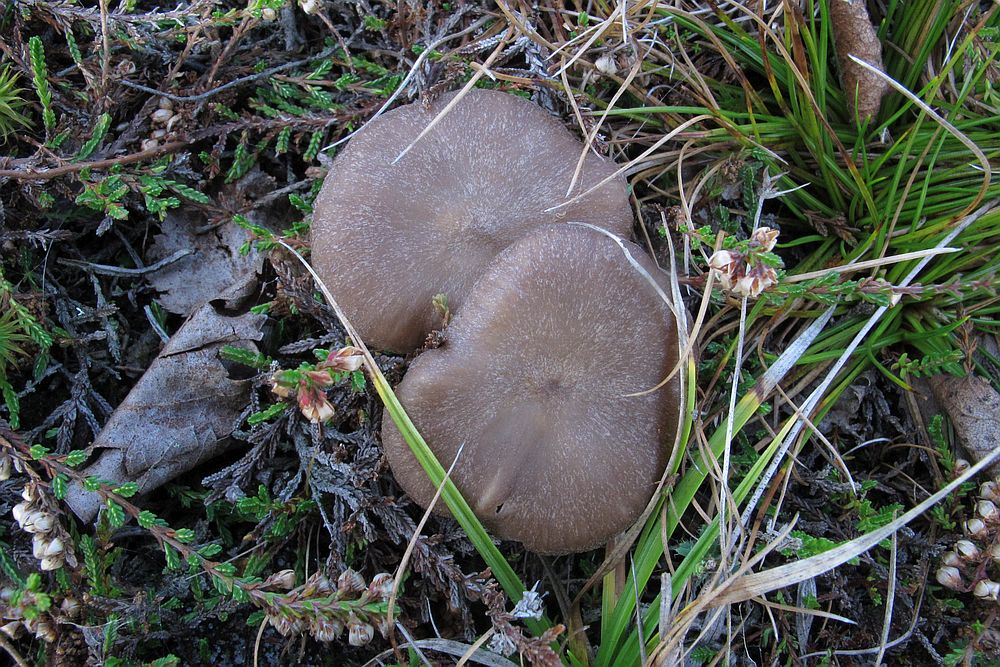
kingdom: Fungi
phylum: Basidiomycota
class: Agaricomycetes
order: Agaricales
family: Entolomataceae
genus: Entoloma
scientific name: Entoloma elodes
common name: mørkægget rødblad
